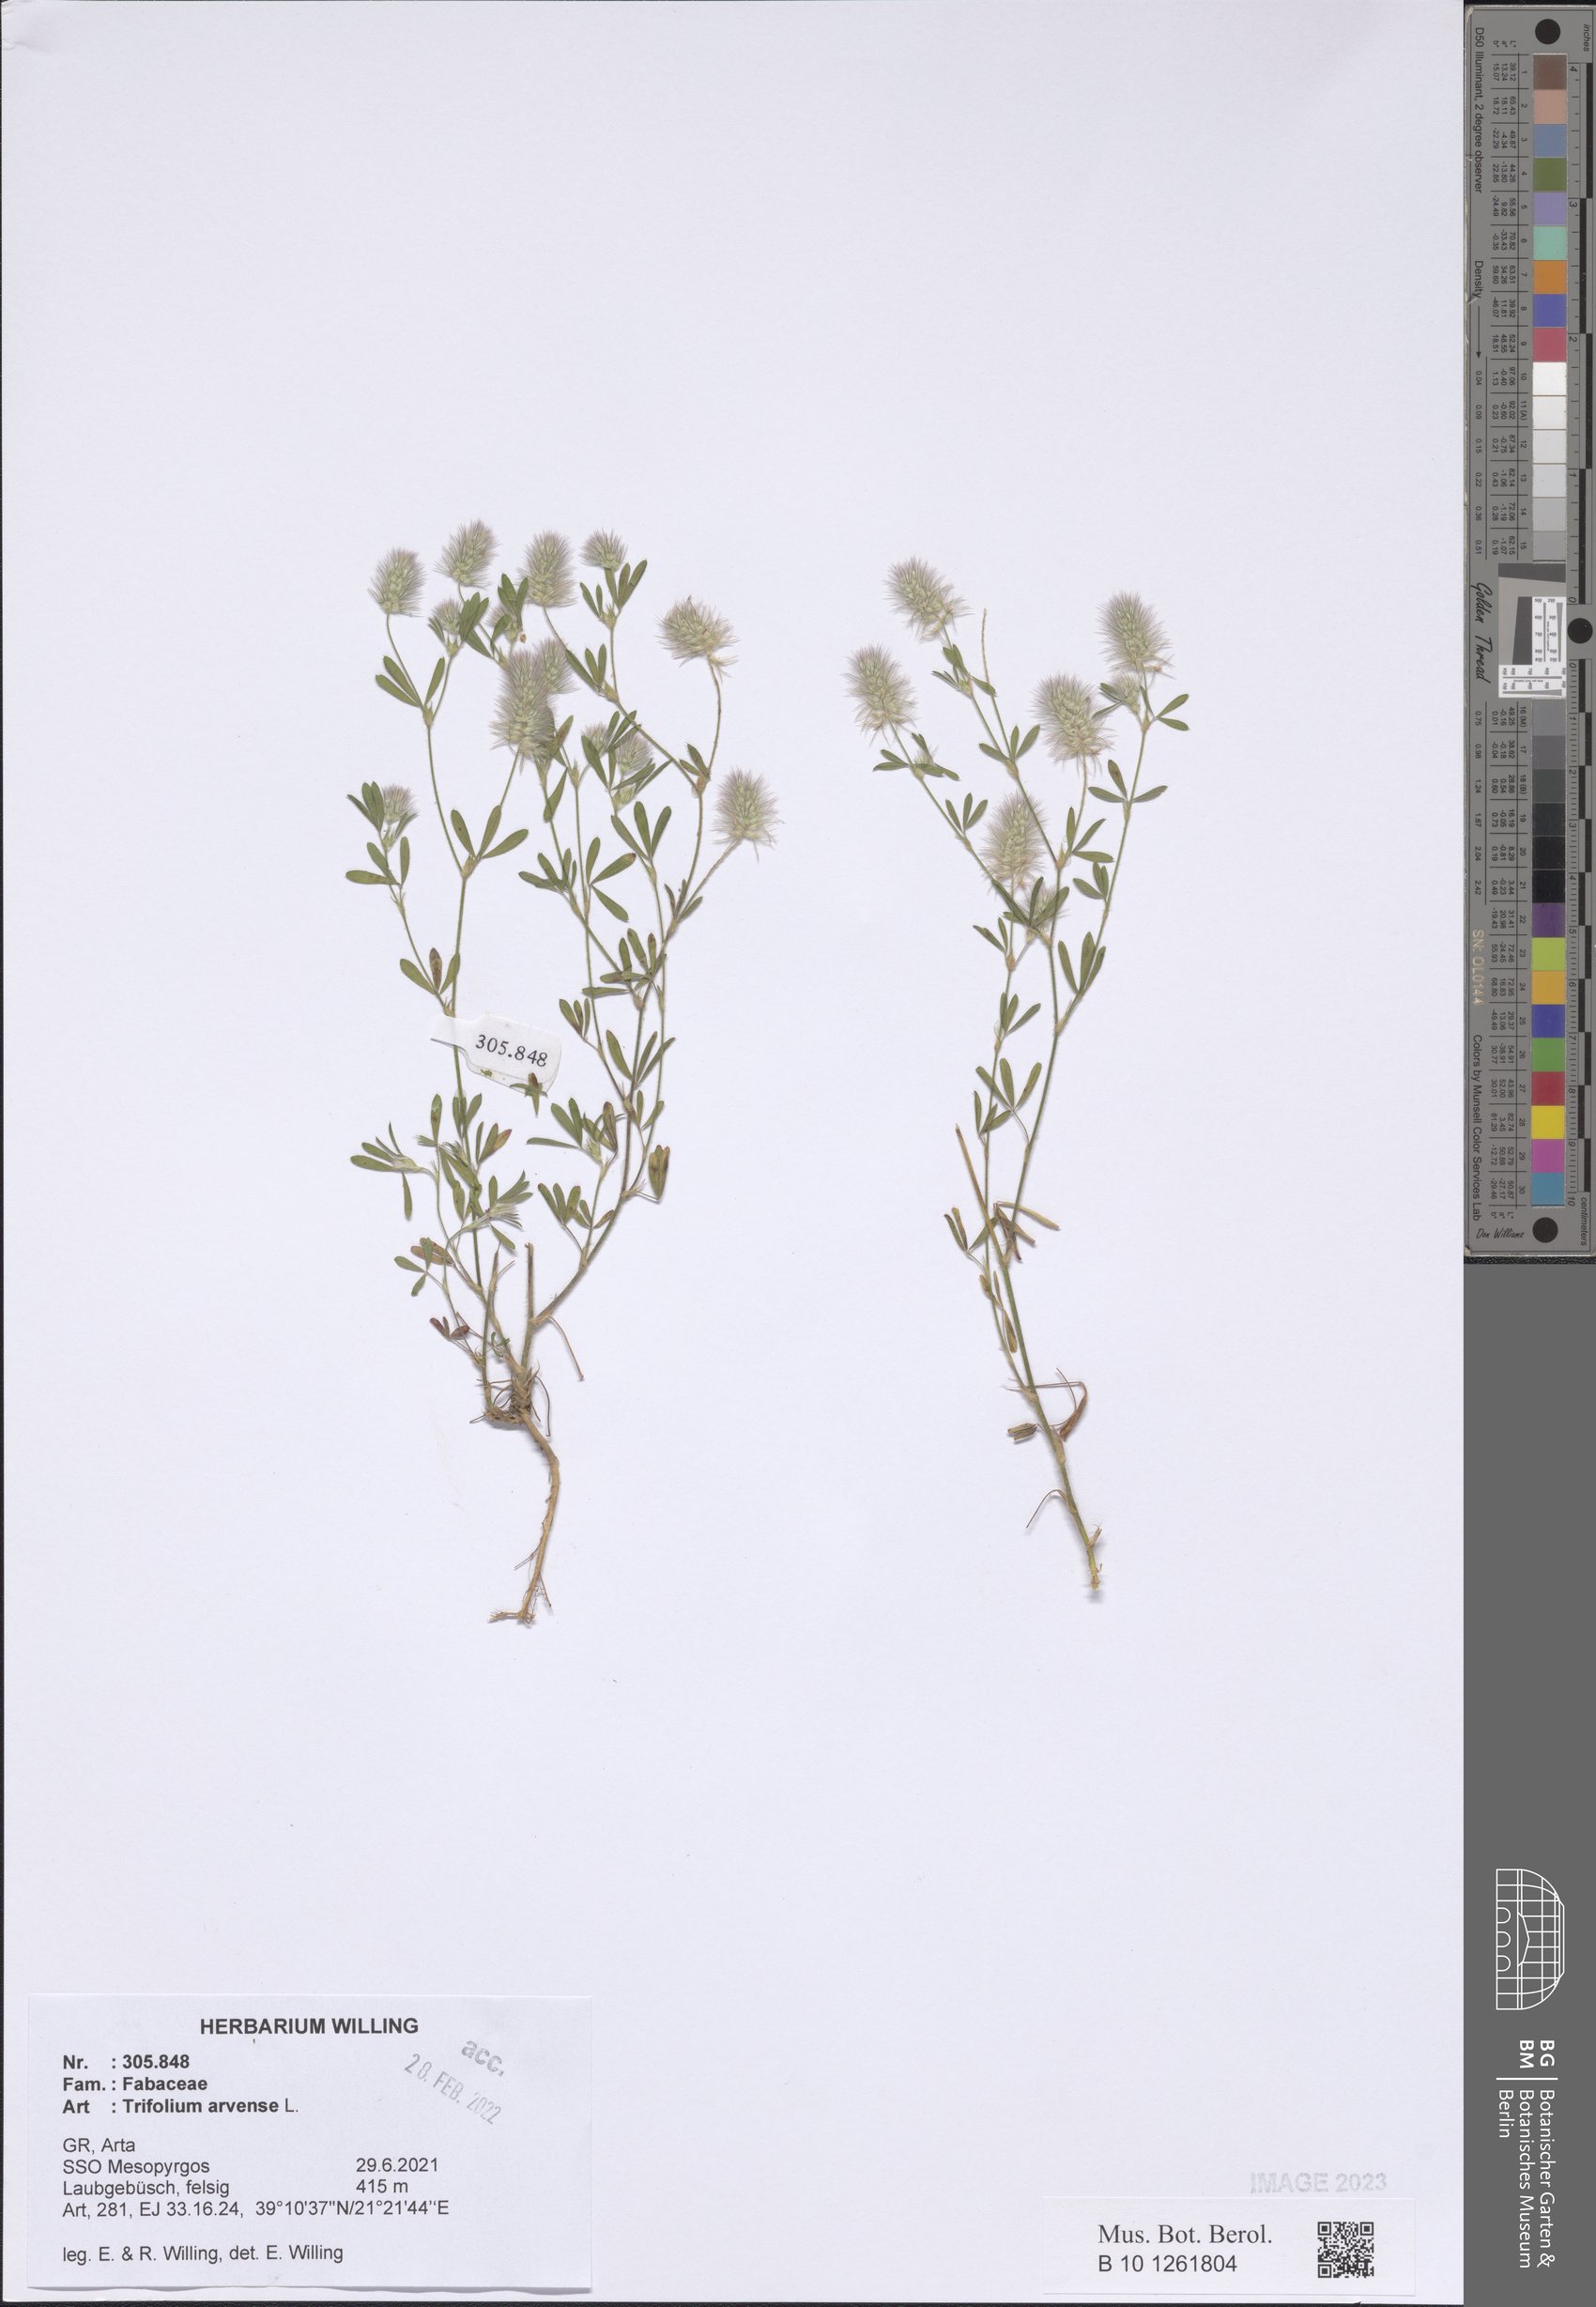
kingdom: Plantae
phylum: Tracheophyta
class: Magnoliopsida
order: Fabales
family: Fabaceae
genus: Trifolium
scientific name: Trifolium arvense
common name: Hare's-foot clover
